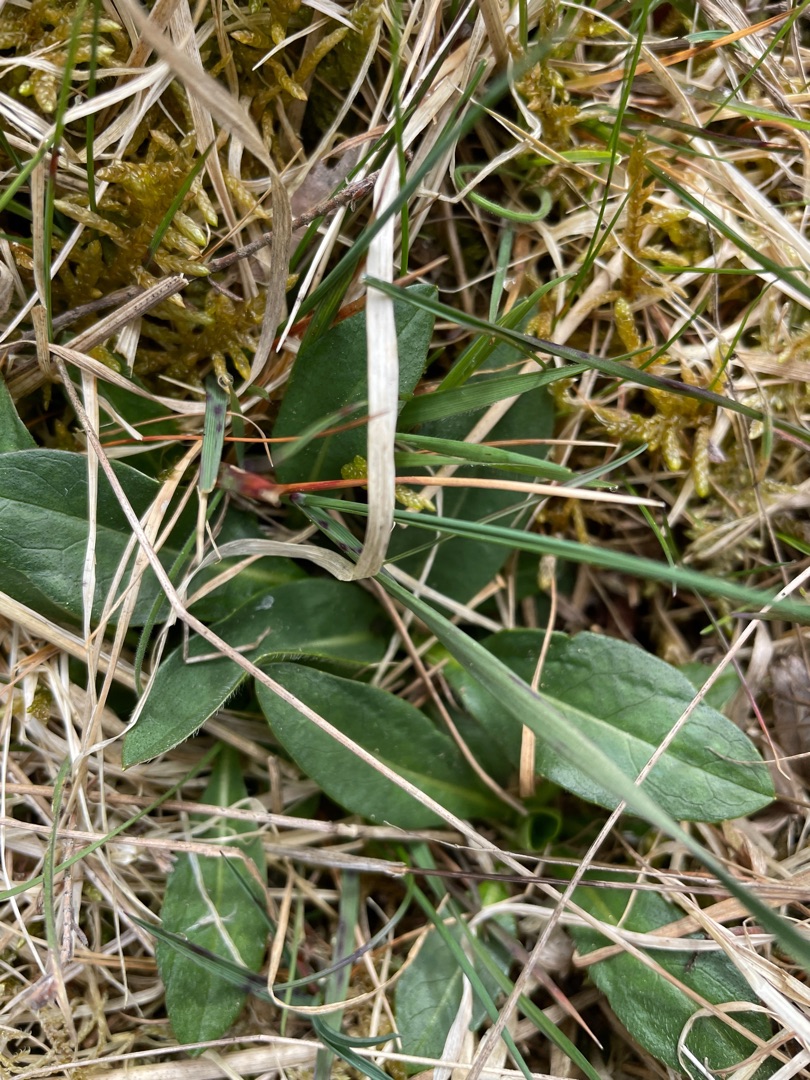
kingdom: Plantae
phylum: Tracheophyta
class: Magnoliopsida
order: Dipsacales
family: Caprifoliaceae
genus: Succisa
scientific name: Succisa pratensis
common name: Djævelsbid
